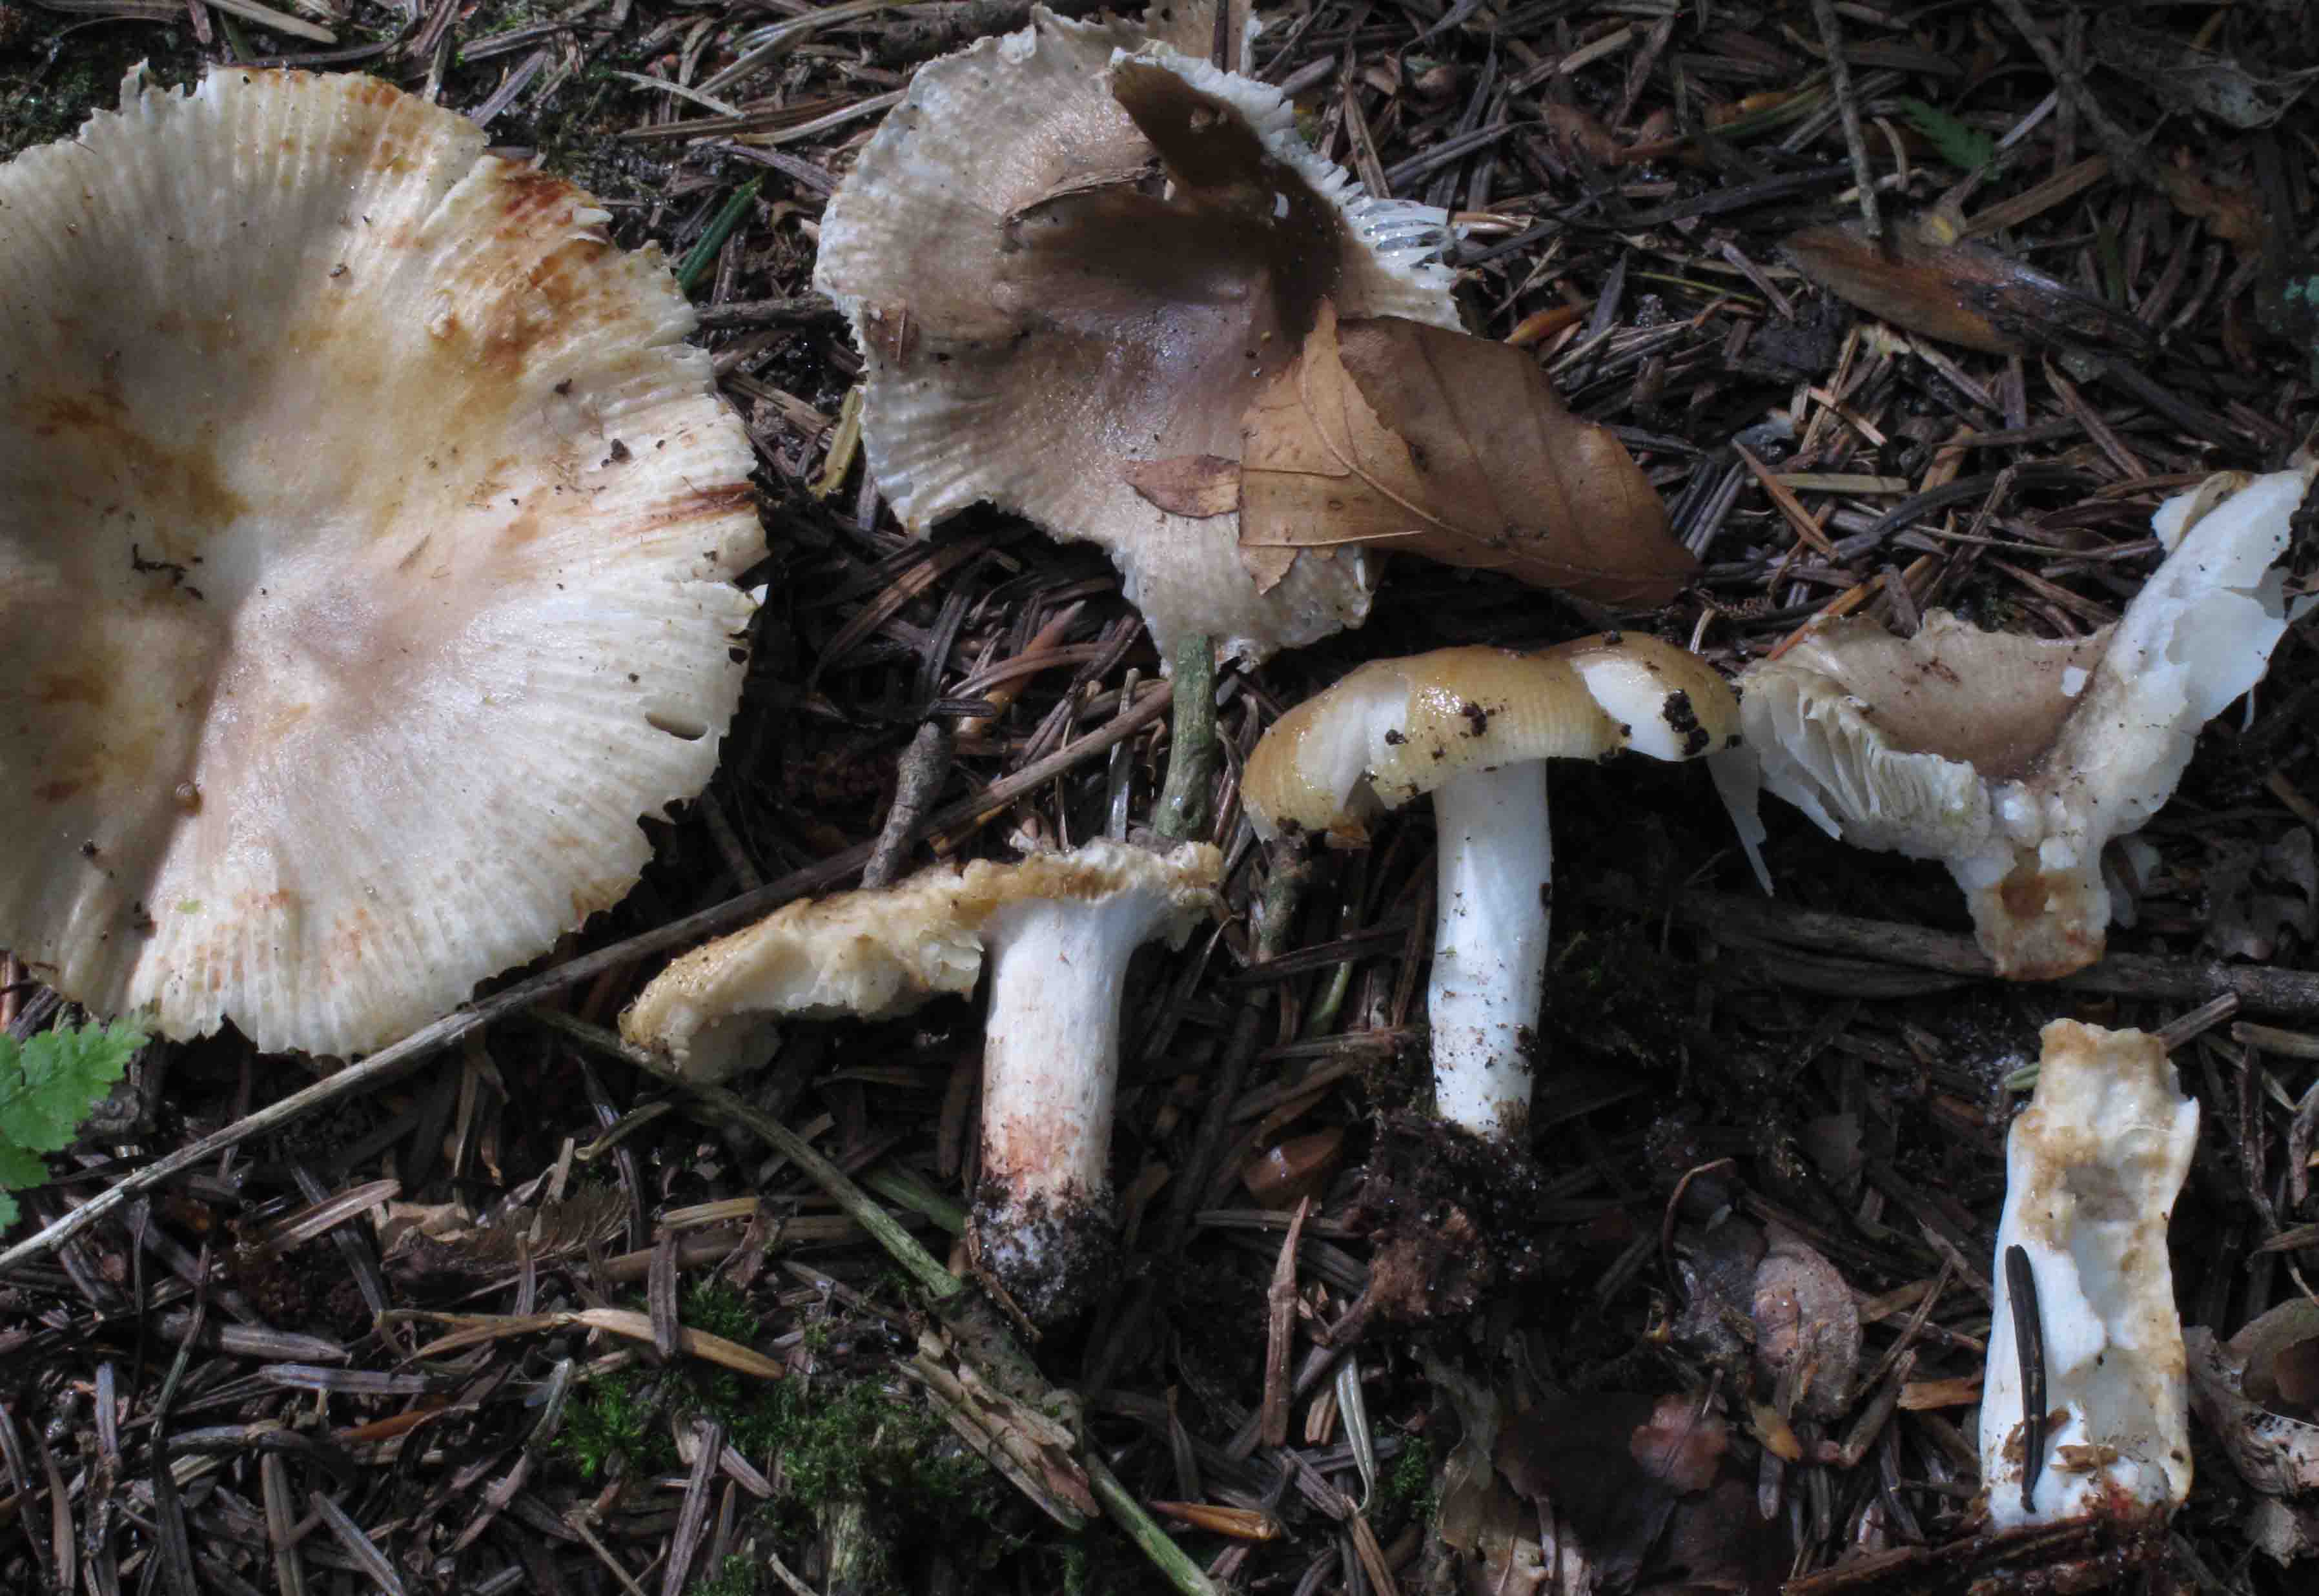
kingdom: Fungi
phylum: Basidiomycota
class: Agaricomycetes
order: Russulales
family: Russulaceae
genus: Russula
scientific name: Russula amoenolens
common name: skarp kam-skørhat
